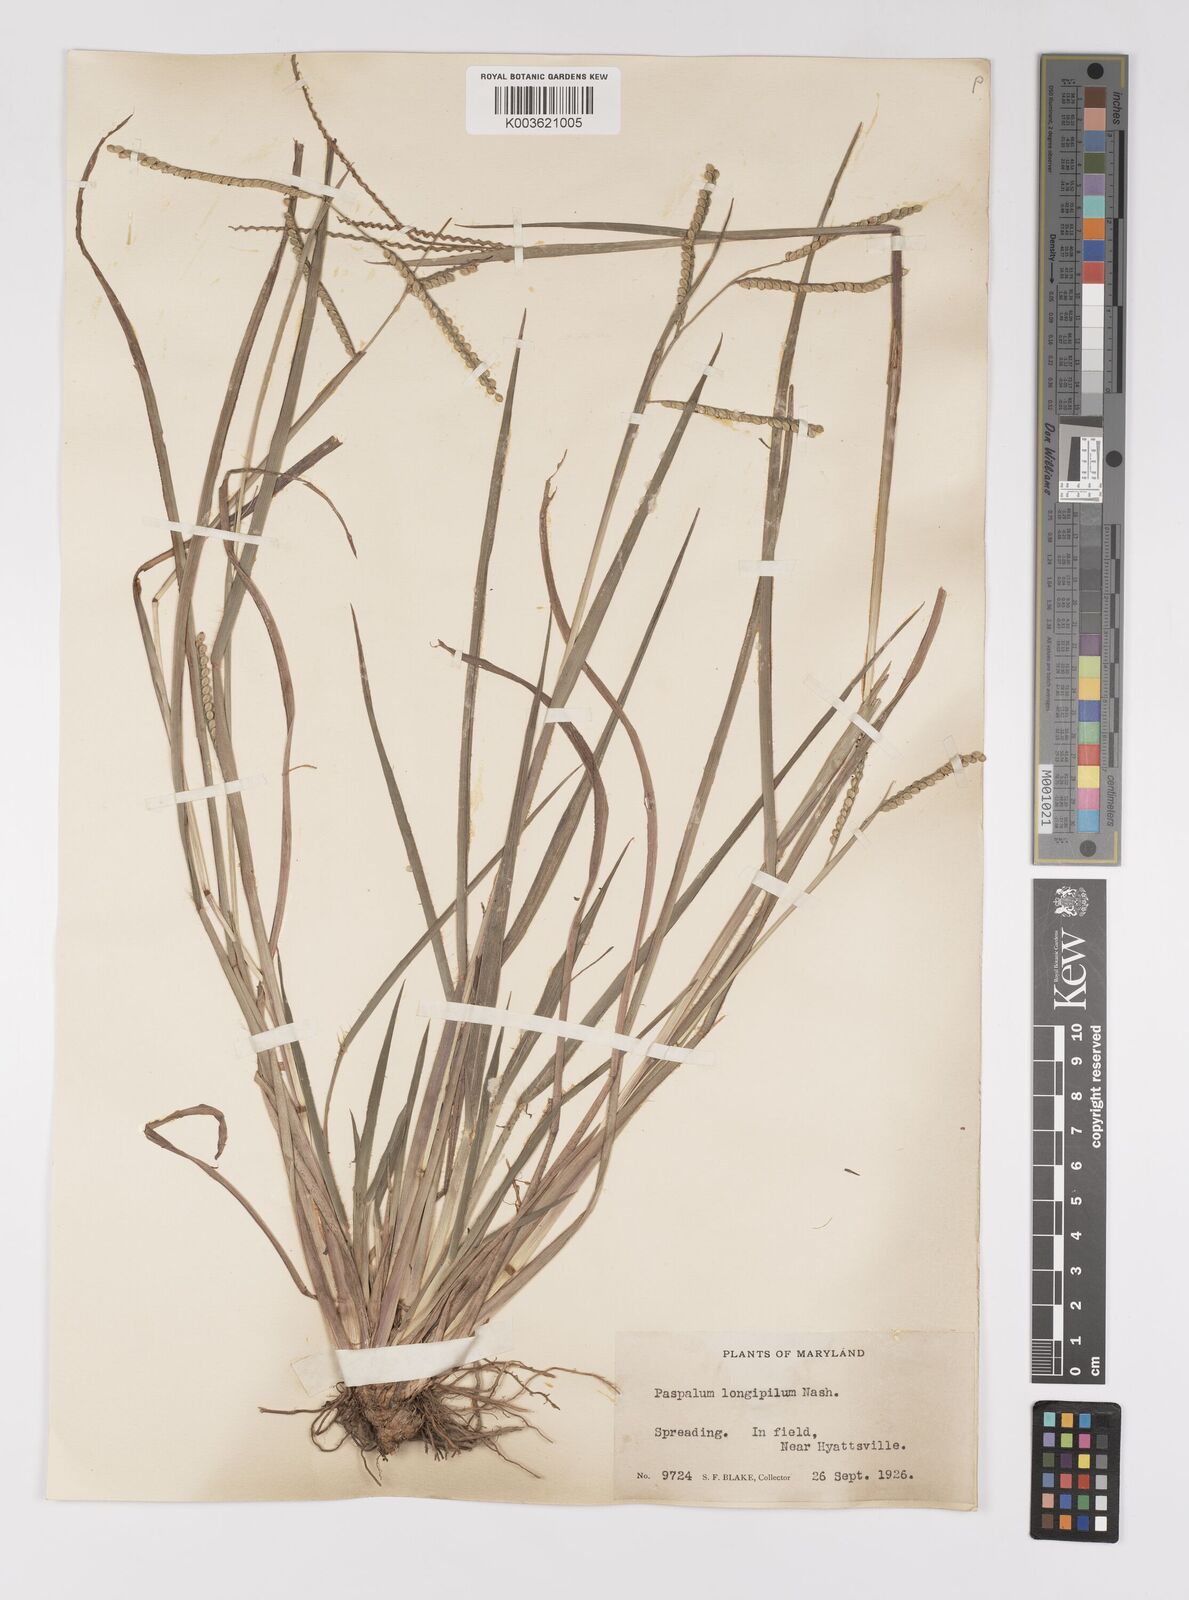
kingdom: Plantae
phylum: Tracheophyta
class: Liliopsida
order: Poales
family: Poaceae
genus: Paspalum
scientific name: Paspalum laeve
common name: Field paspalum
